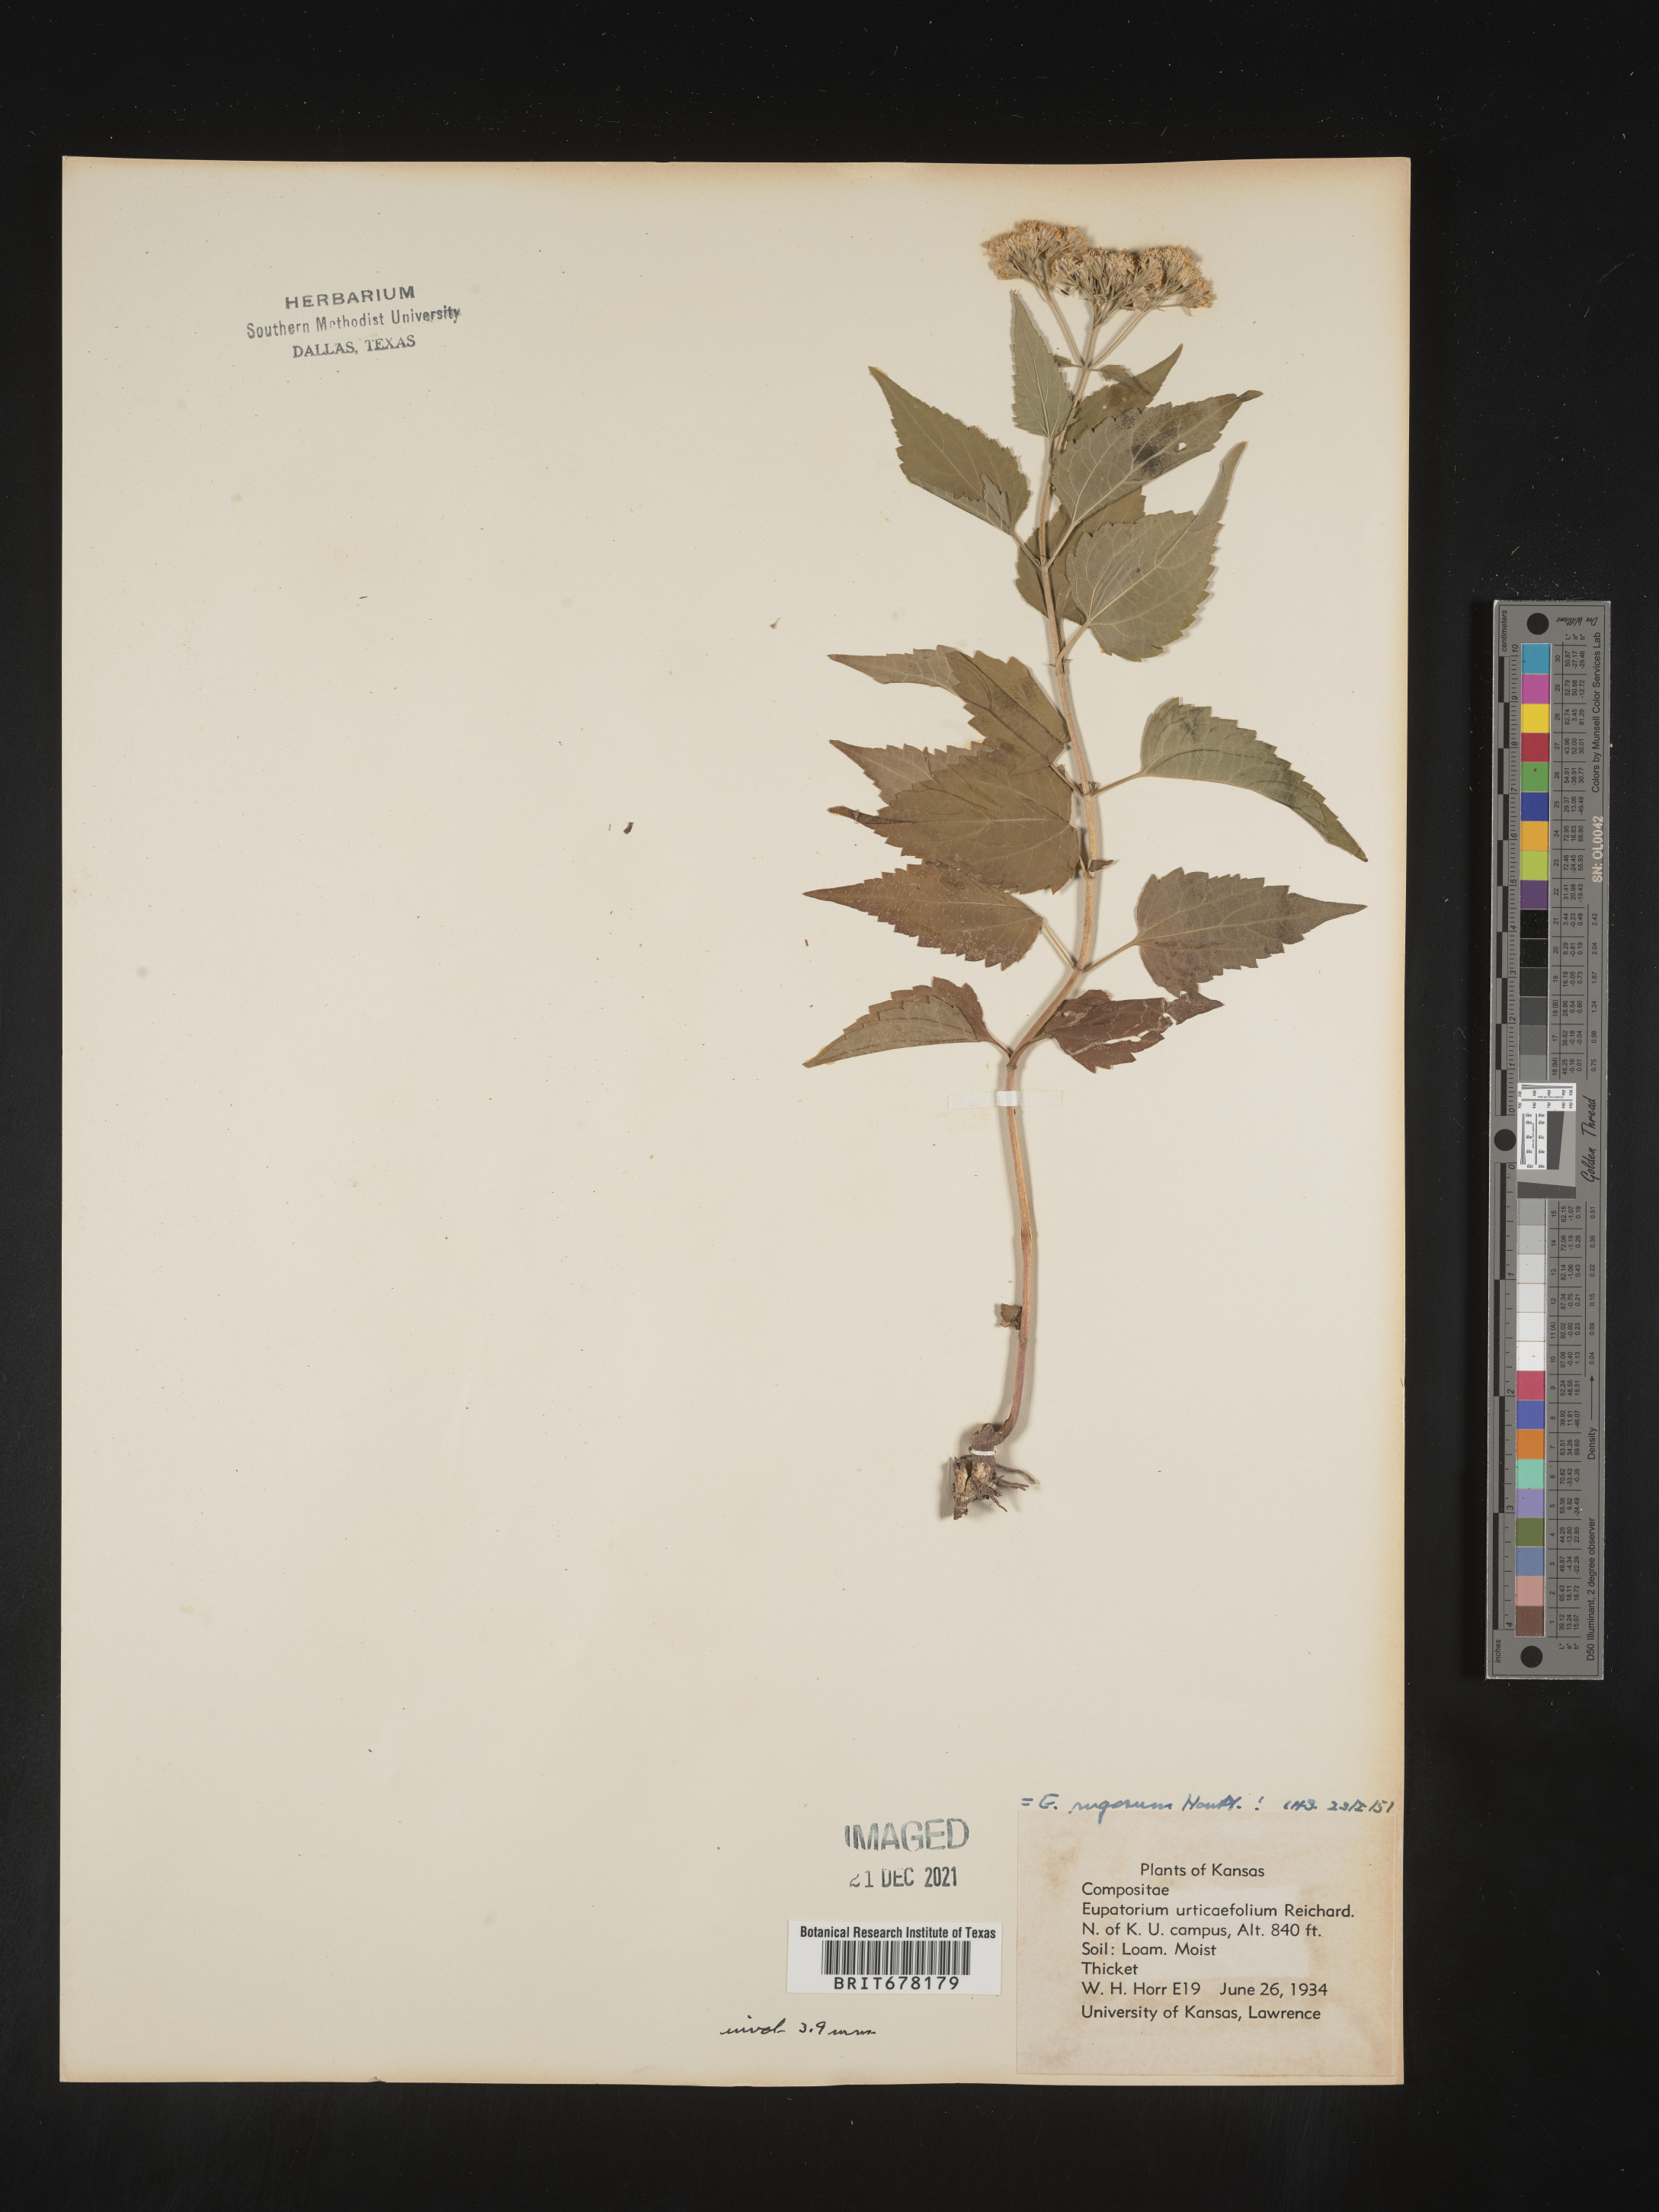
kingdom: Plantae
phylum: Tracheophyta
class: Magnoliopsida
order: Asterales
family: Asteraceae
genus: Eupatorium
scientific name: Eupatorium
